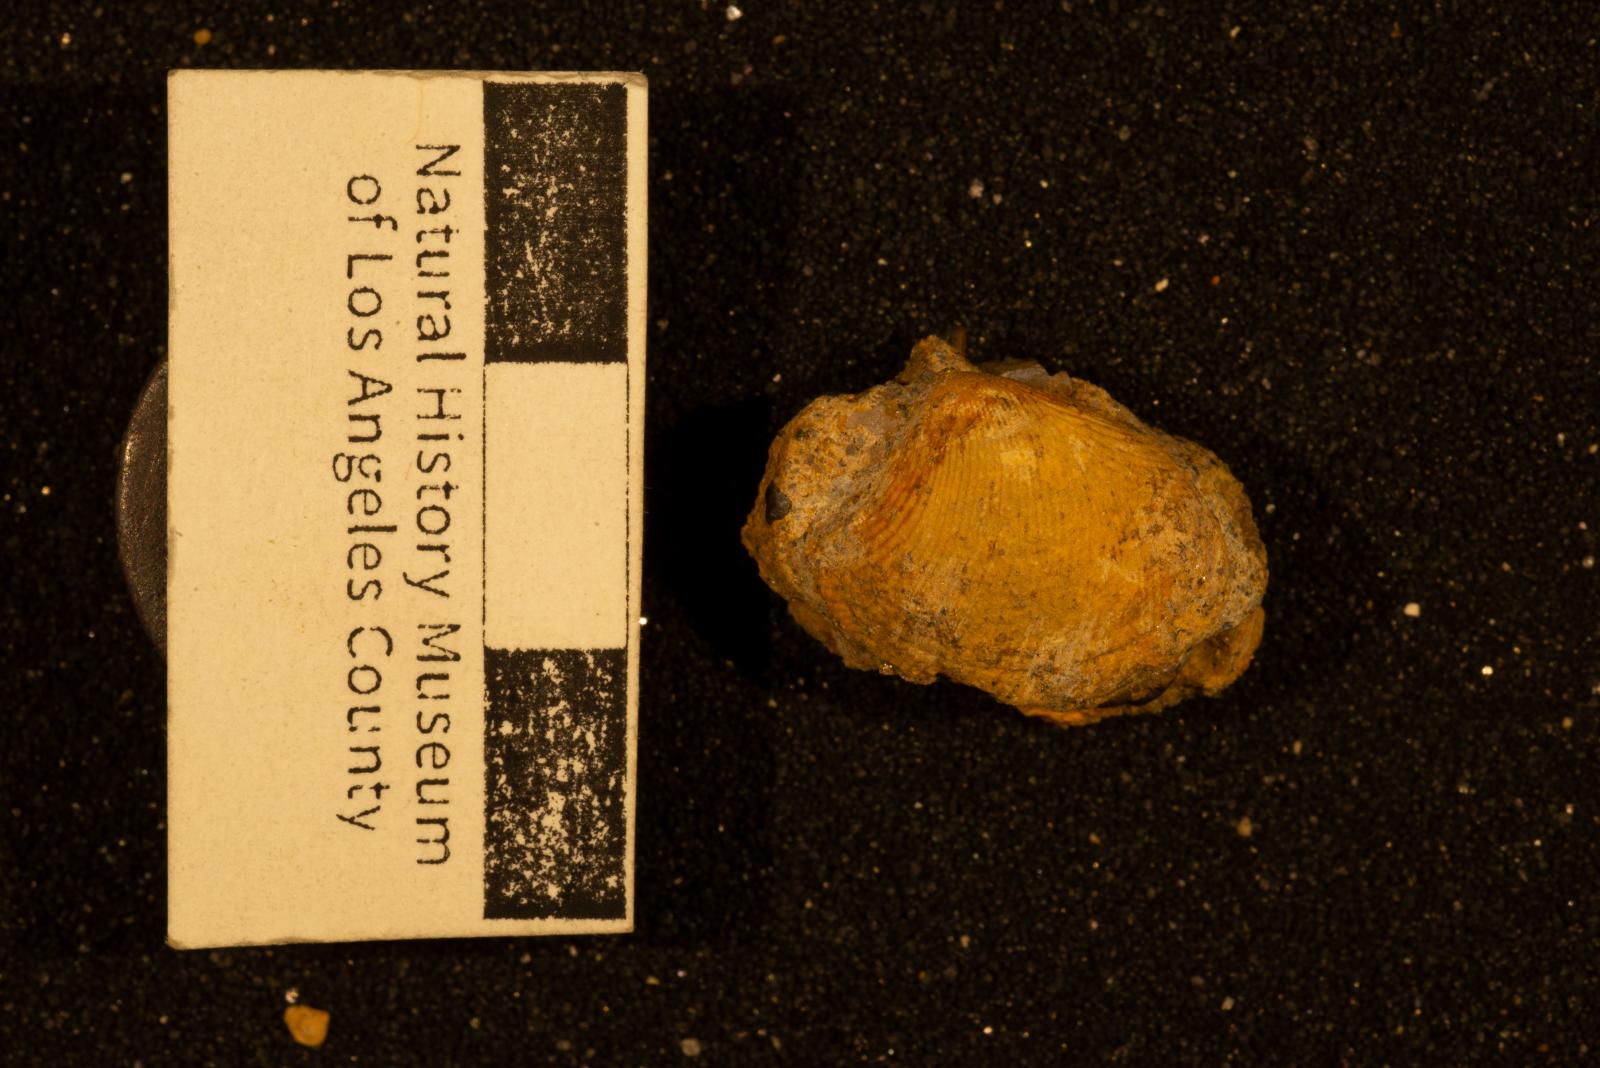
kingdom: Animalia
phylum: Mollusca
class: Bivalvia
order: Nuculida
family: Nuculidae
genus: Acila
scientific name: Acila rosaria
